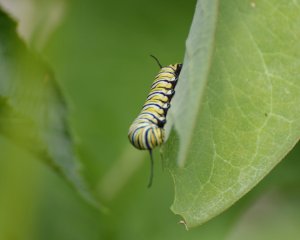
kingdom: Animalia
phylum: Arthropoda
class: Insecta
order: Lepidoptera
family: Nymphalidae
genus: Danaus
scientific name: Danaus plexippus
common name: Monarch
